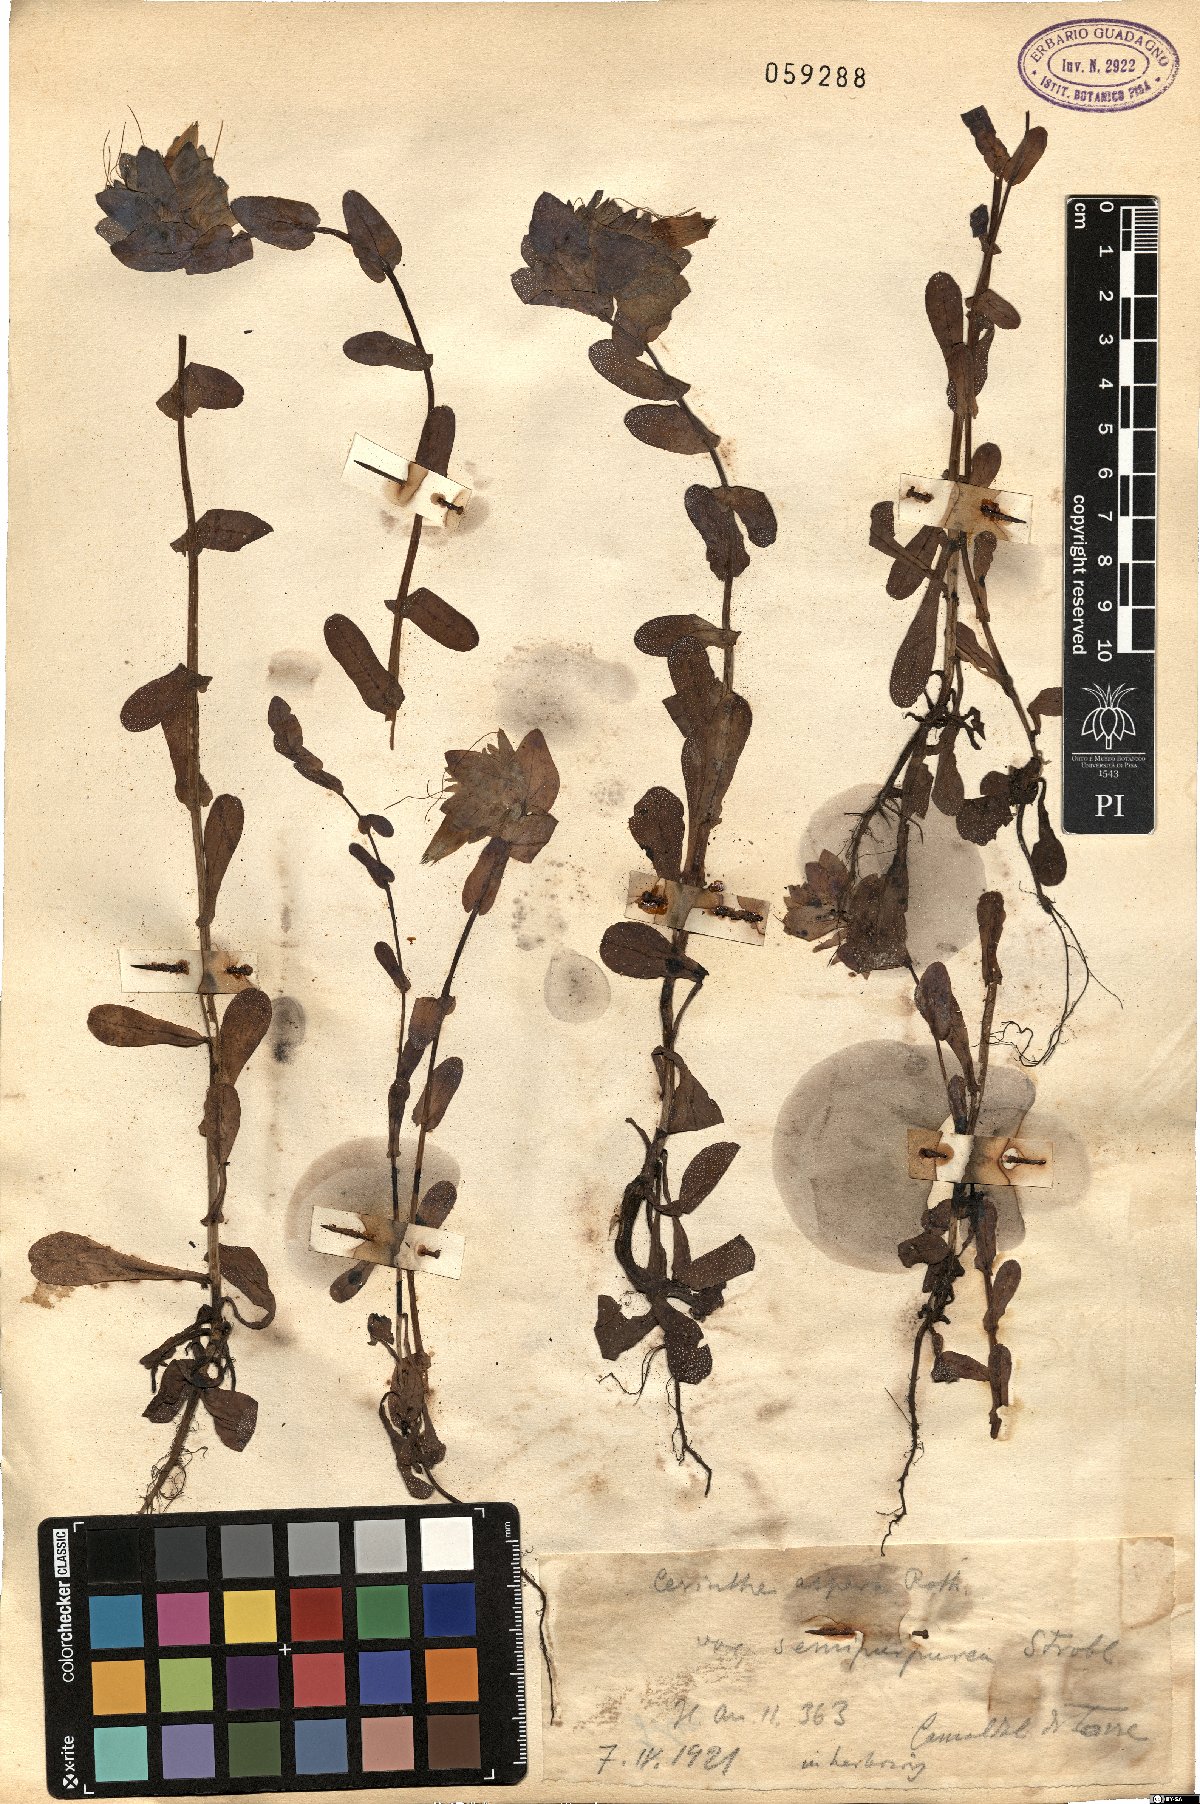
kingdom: Plantae
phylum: Tracheophyta
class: Magnoliopsida
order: Boraginales
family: Boraginaceae
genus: Cerinthe
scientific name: Cerinthe major
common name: Greater honeywort
